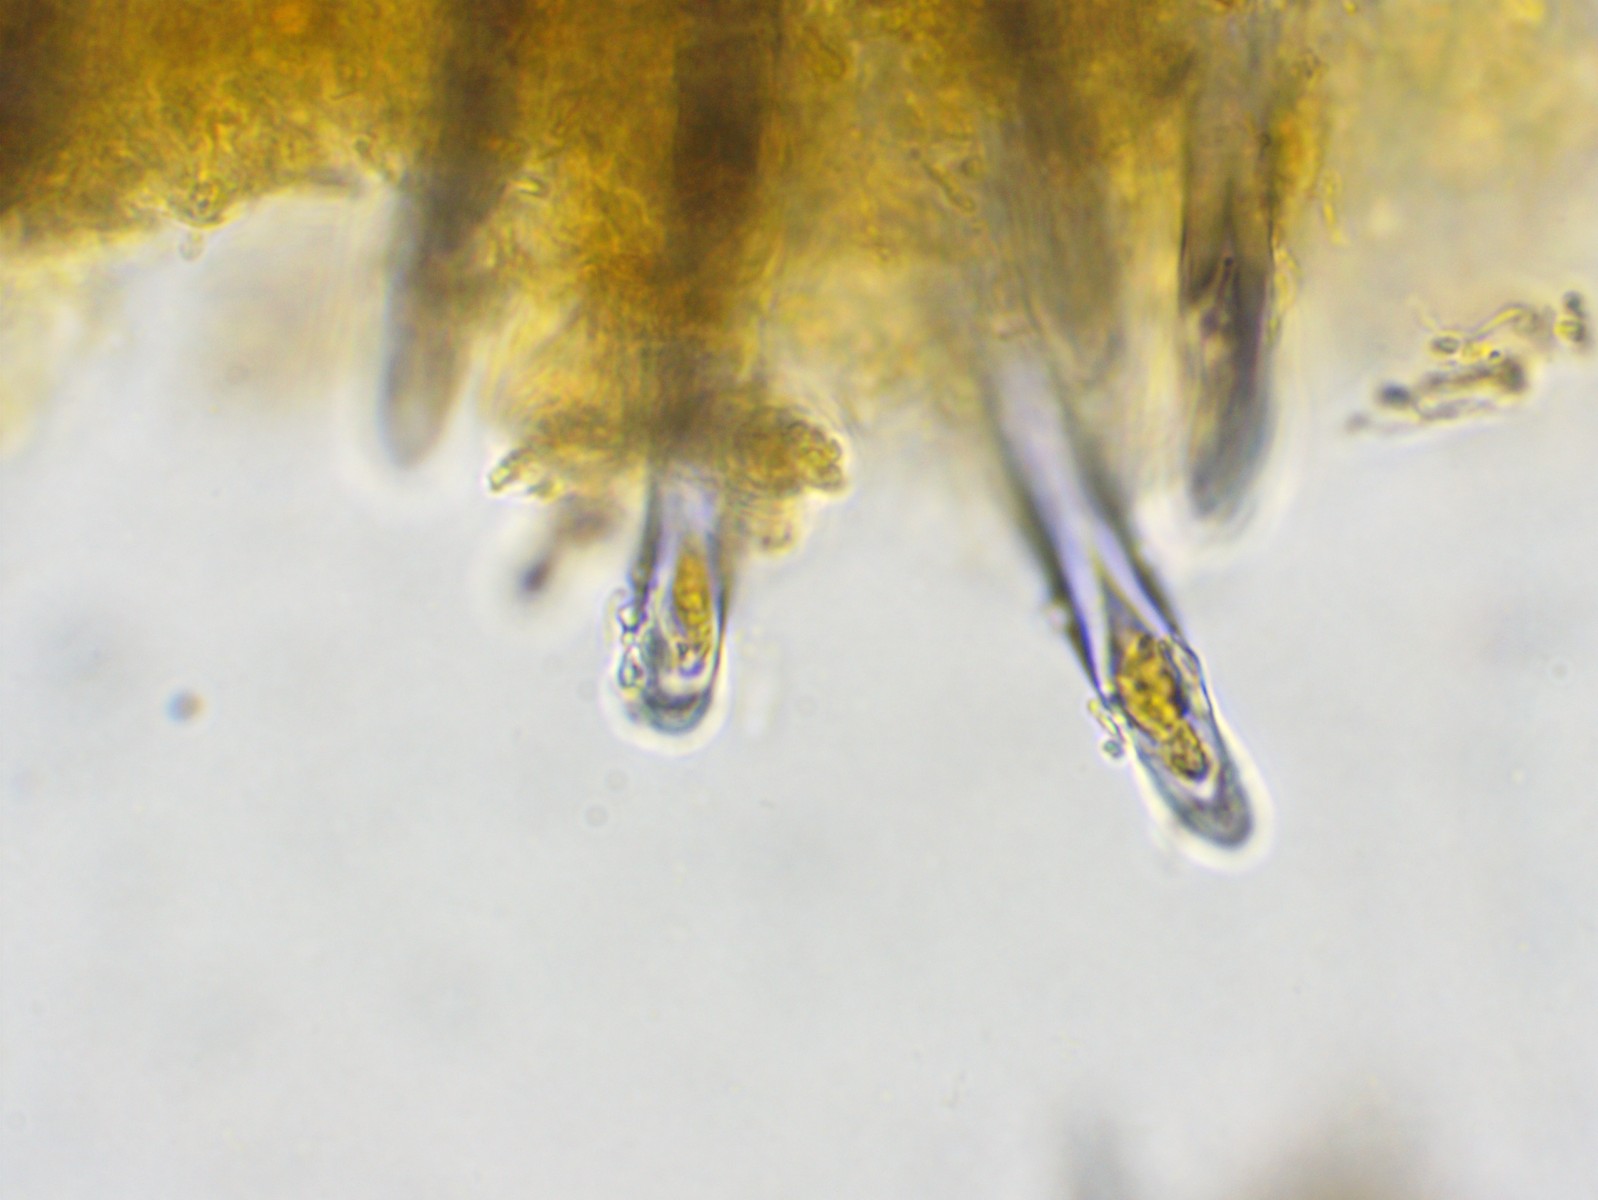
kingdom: Fungi
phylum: Basidiomycota
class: Agaricomycetes
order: Hymenochaetales
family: Hymenochaetaceae
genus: Tubulicrinis
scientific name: Tubulicrinis borealis
